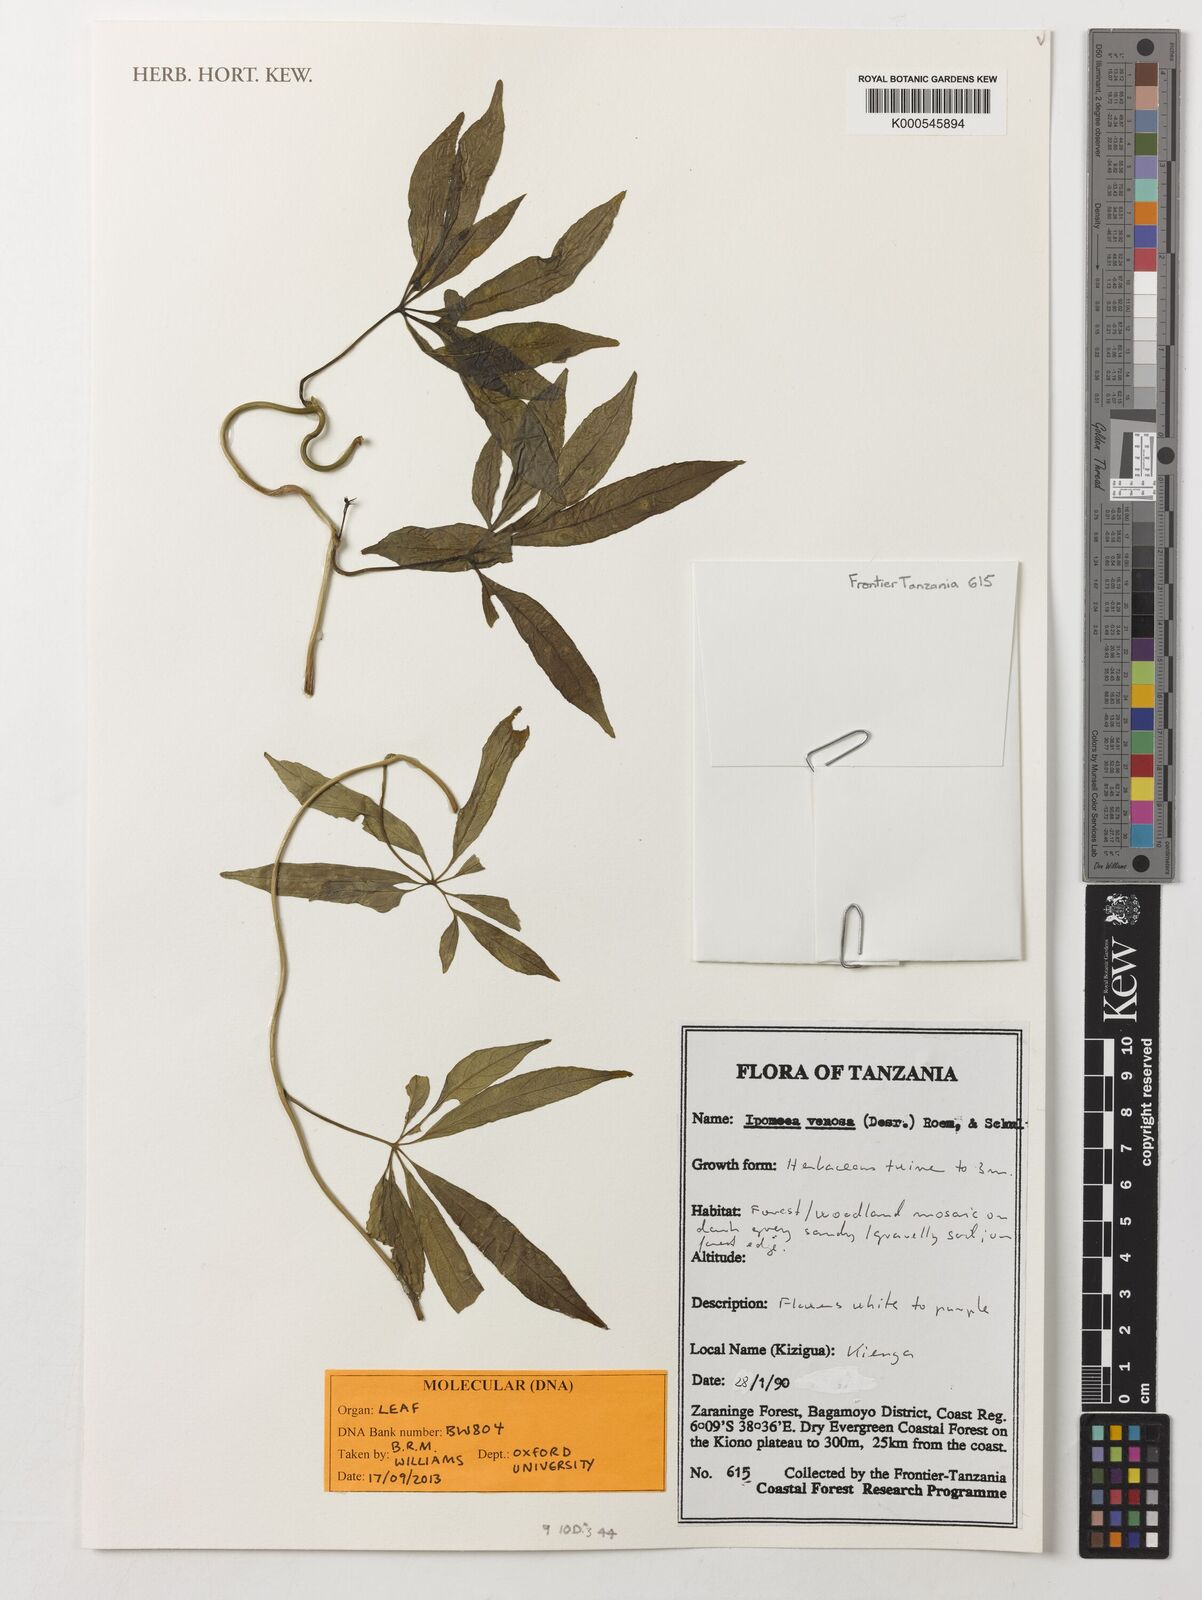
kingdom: Plantae
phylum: Tracheophyta
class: Magnoliopsida
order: Solanales
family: Convolvulaceae
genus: Ipomoea
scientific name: Ipomoea venosa
